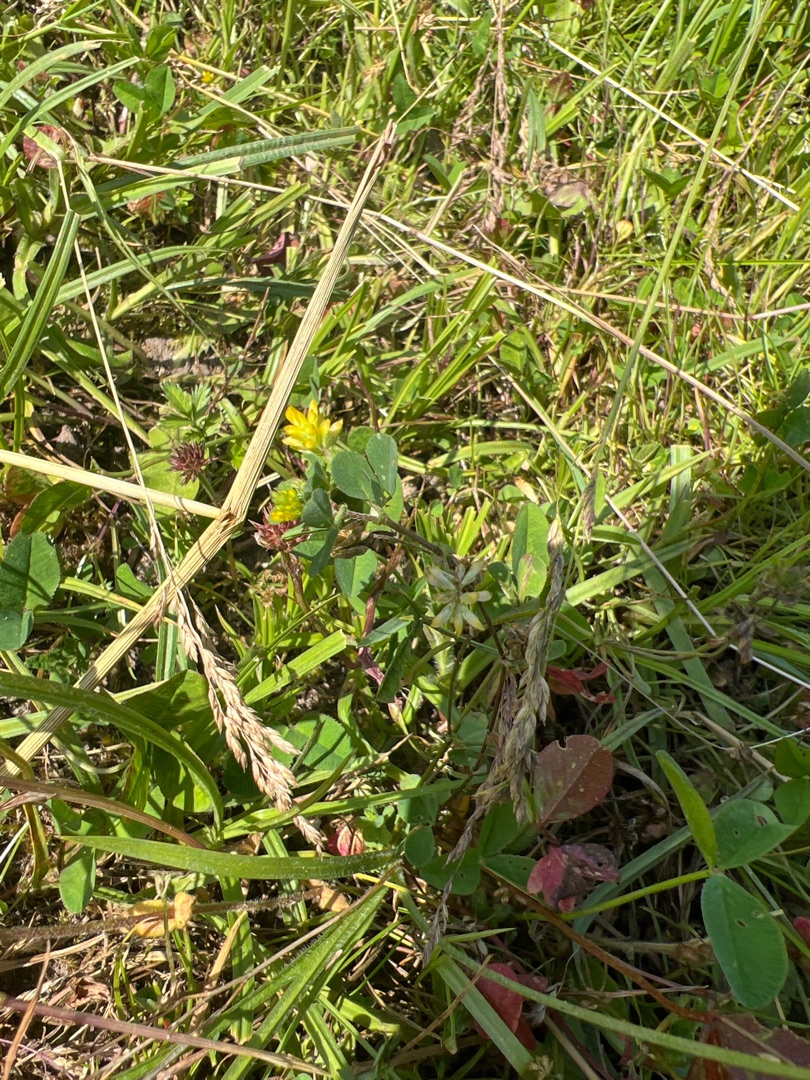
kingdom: Plantae
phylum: Tracheophyta
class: Magnoliopsida
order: Fabales
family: Fabaceae
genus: Trifolium
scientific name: Trifolium dubium
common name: Fin kløver
